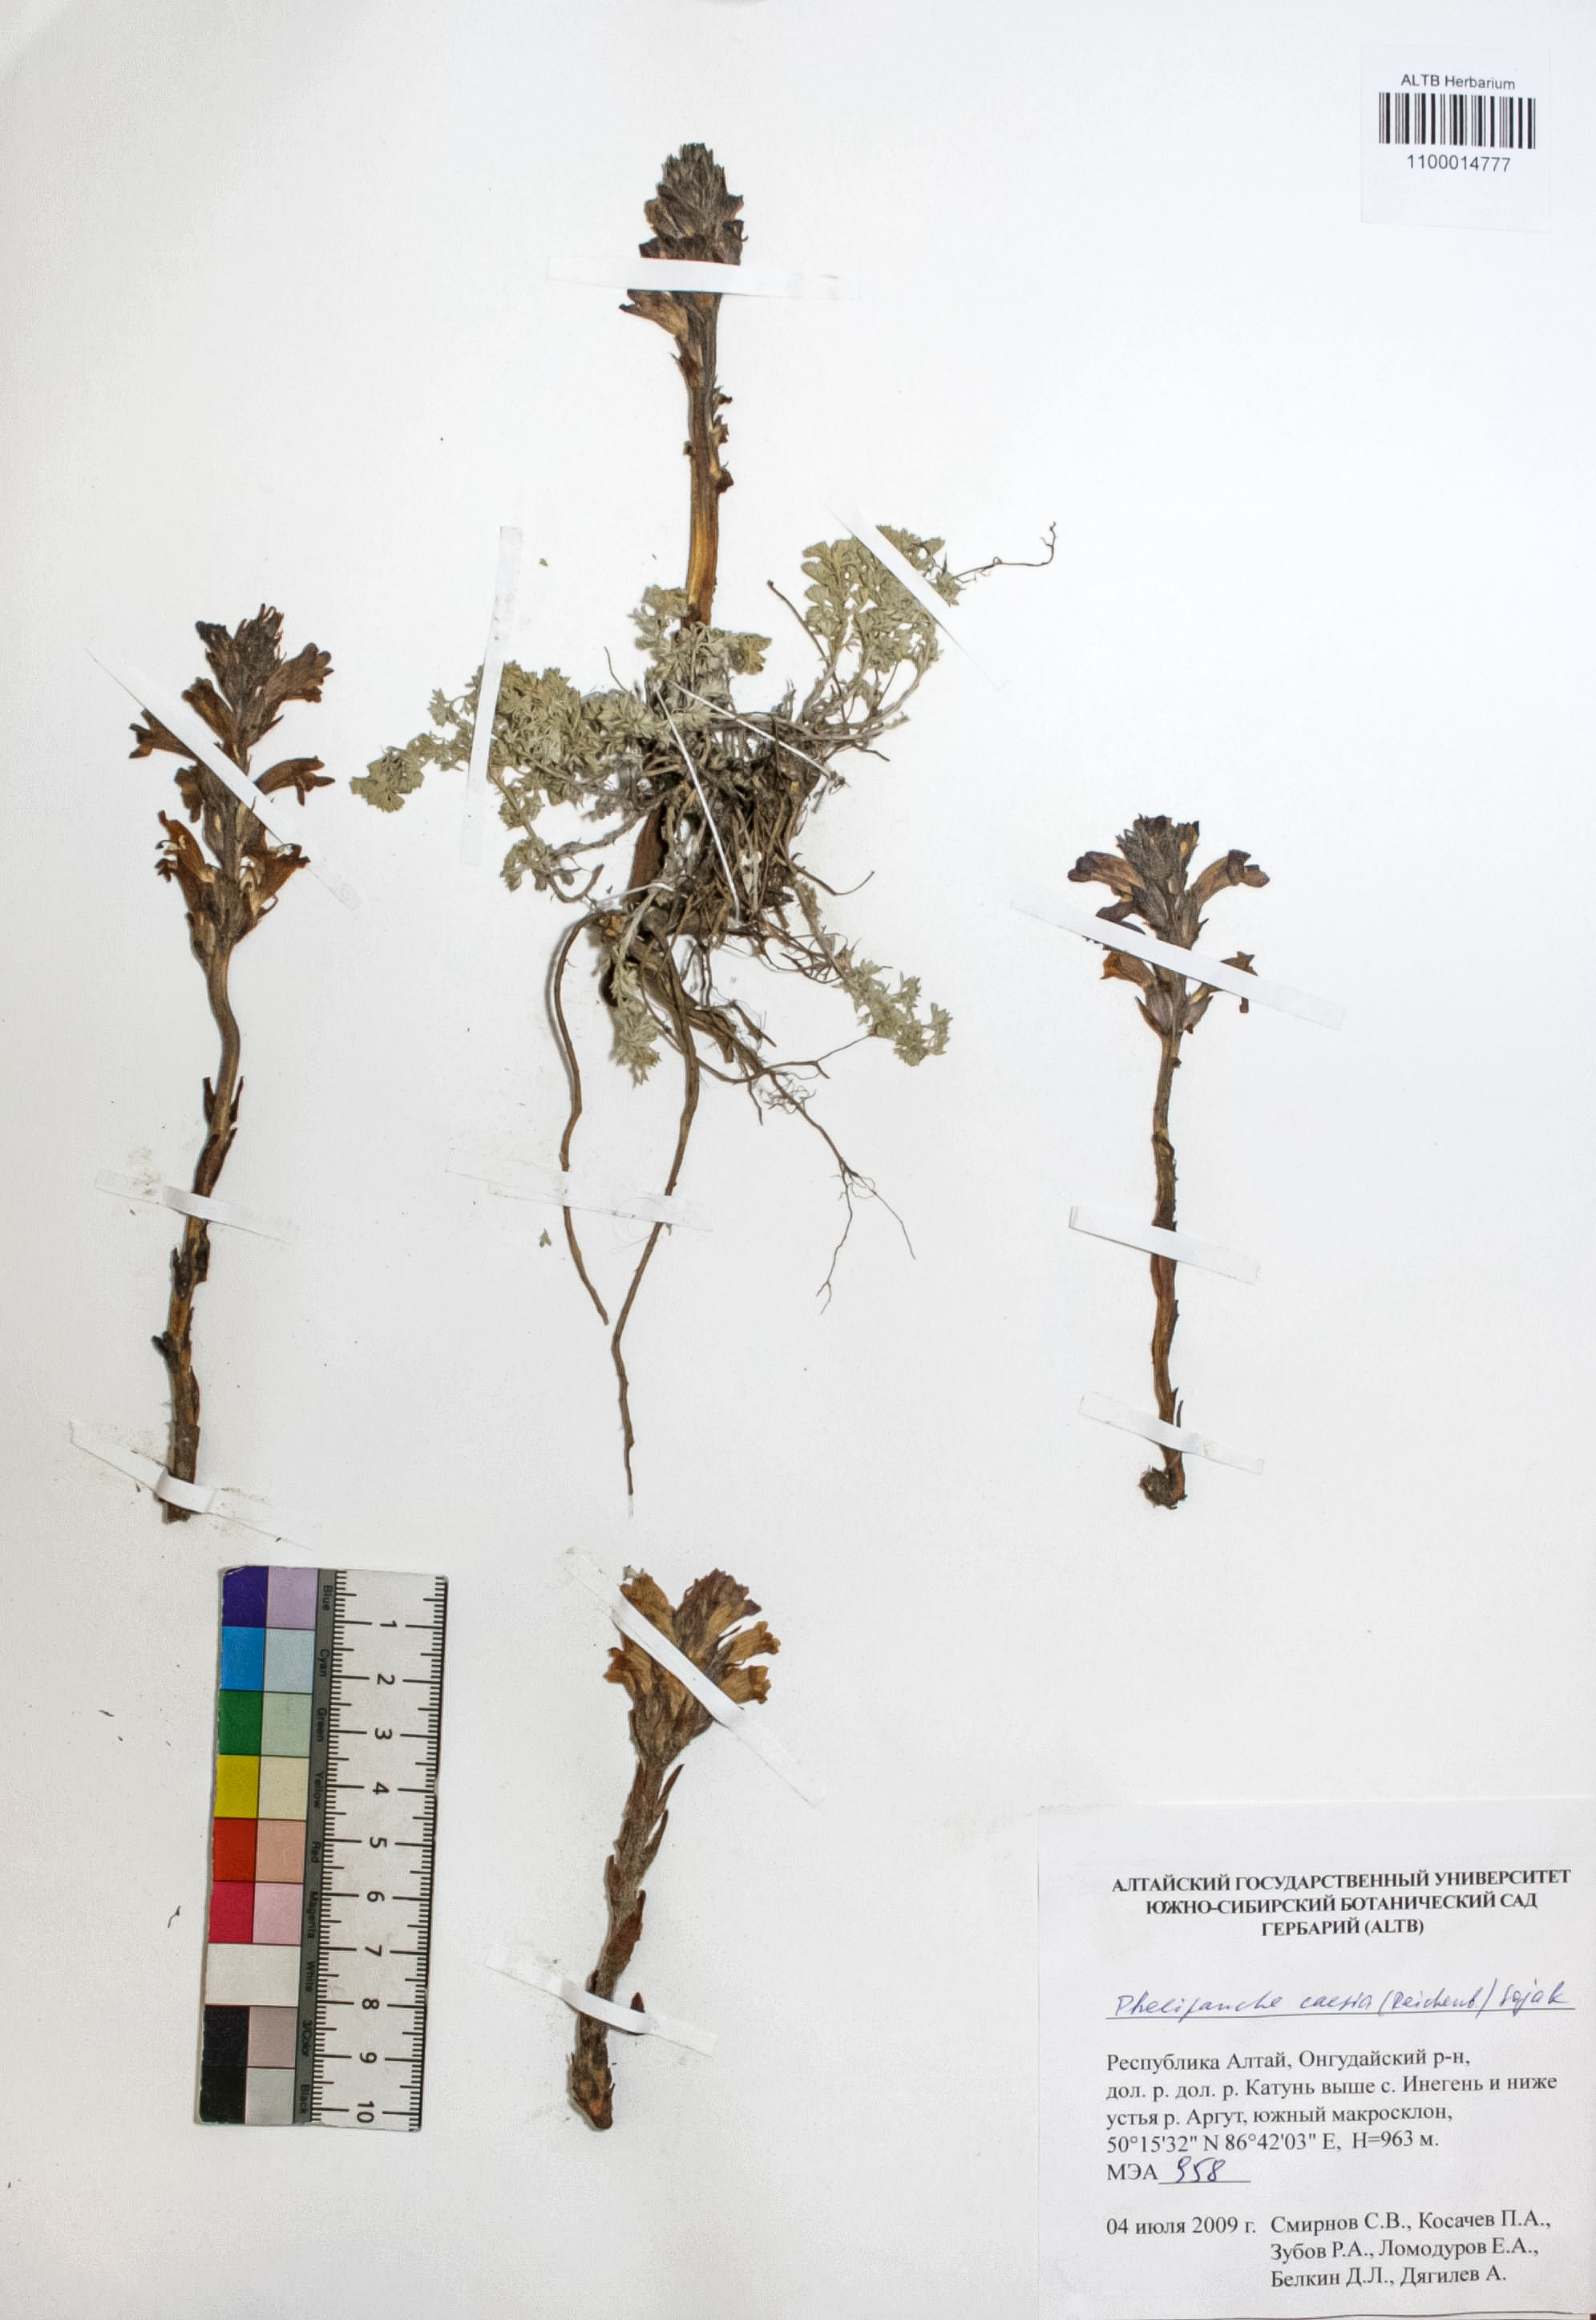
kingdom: Plantae
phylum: Tracheophyta
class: Magnoliopsida
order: Lamiales
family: Orobanchaceae
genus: Phelipanche
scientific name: Phelipanche caesia
